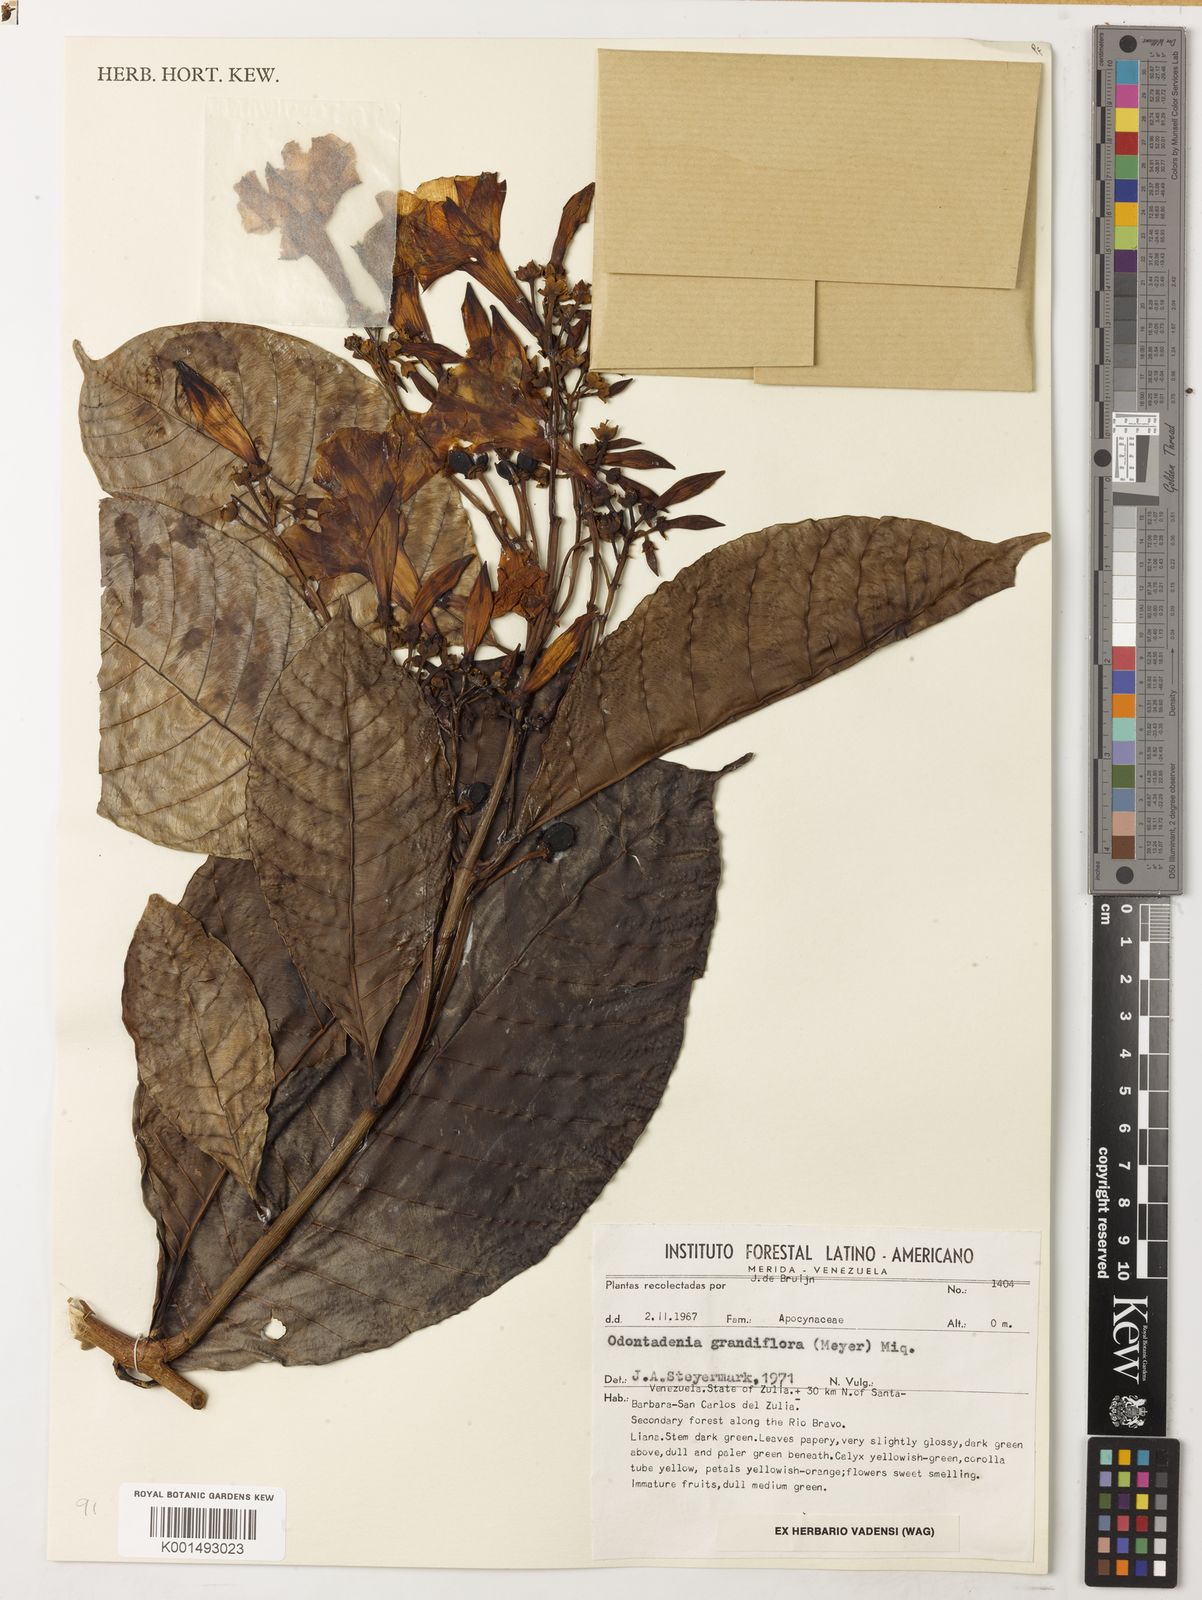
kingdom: Plantae
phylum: Tracheophyta
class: Magnoliopsida
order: Gentianales
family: Apocynaceae
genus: Odontadenia
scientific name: Odontadenia semidigyna
